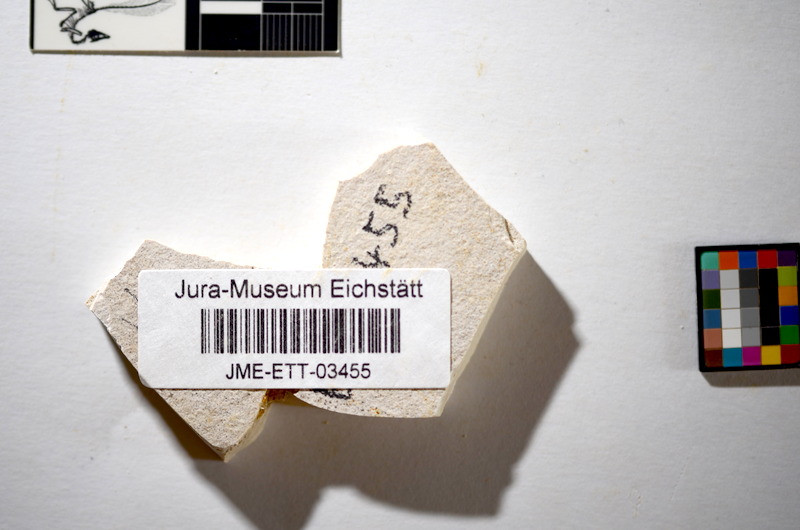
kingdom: Animalia
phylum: Chordata
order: Salmoniformes
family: Orthogonikleithridae
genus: Orthogonikleithrus
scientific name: Orthogonikleithrus hoelli
